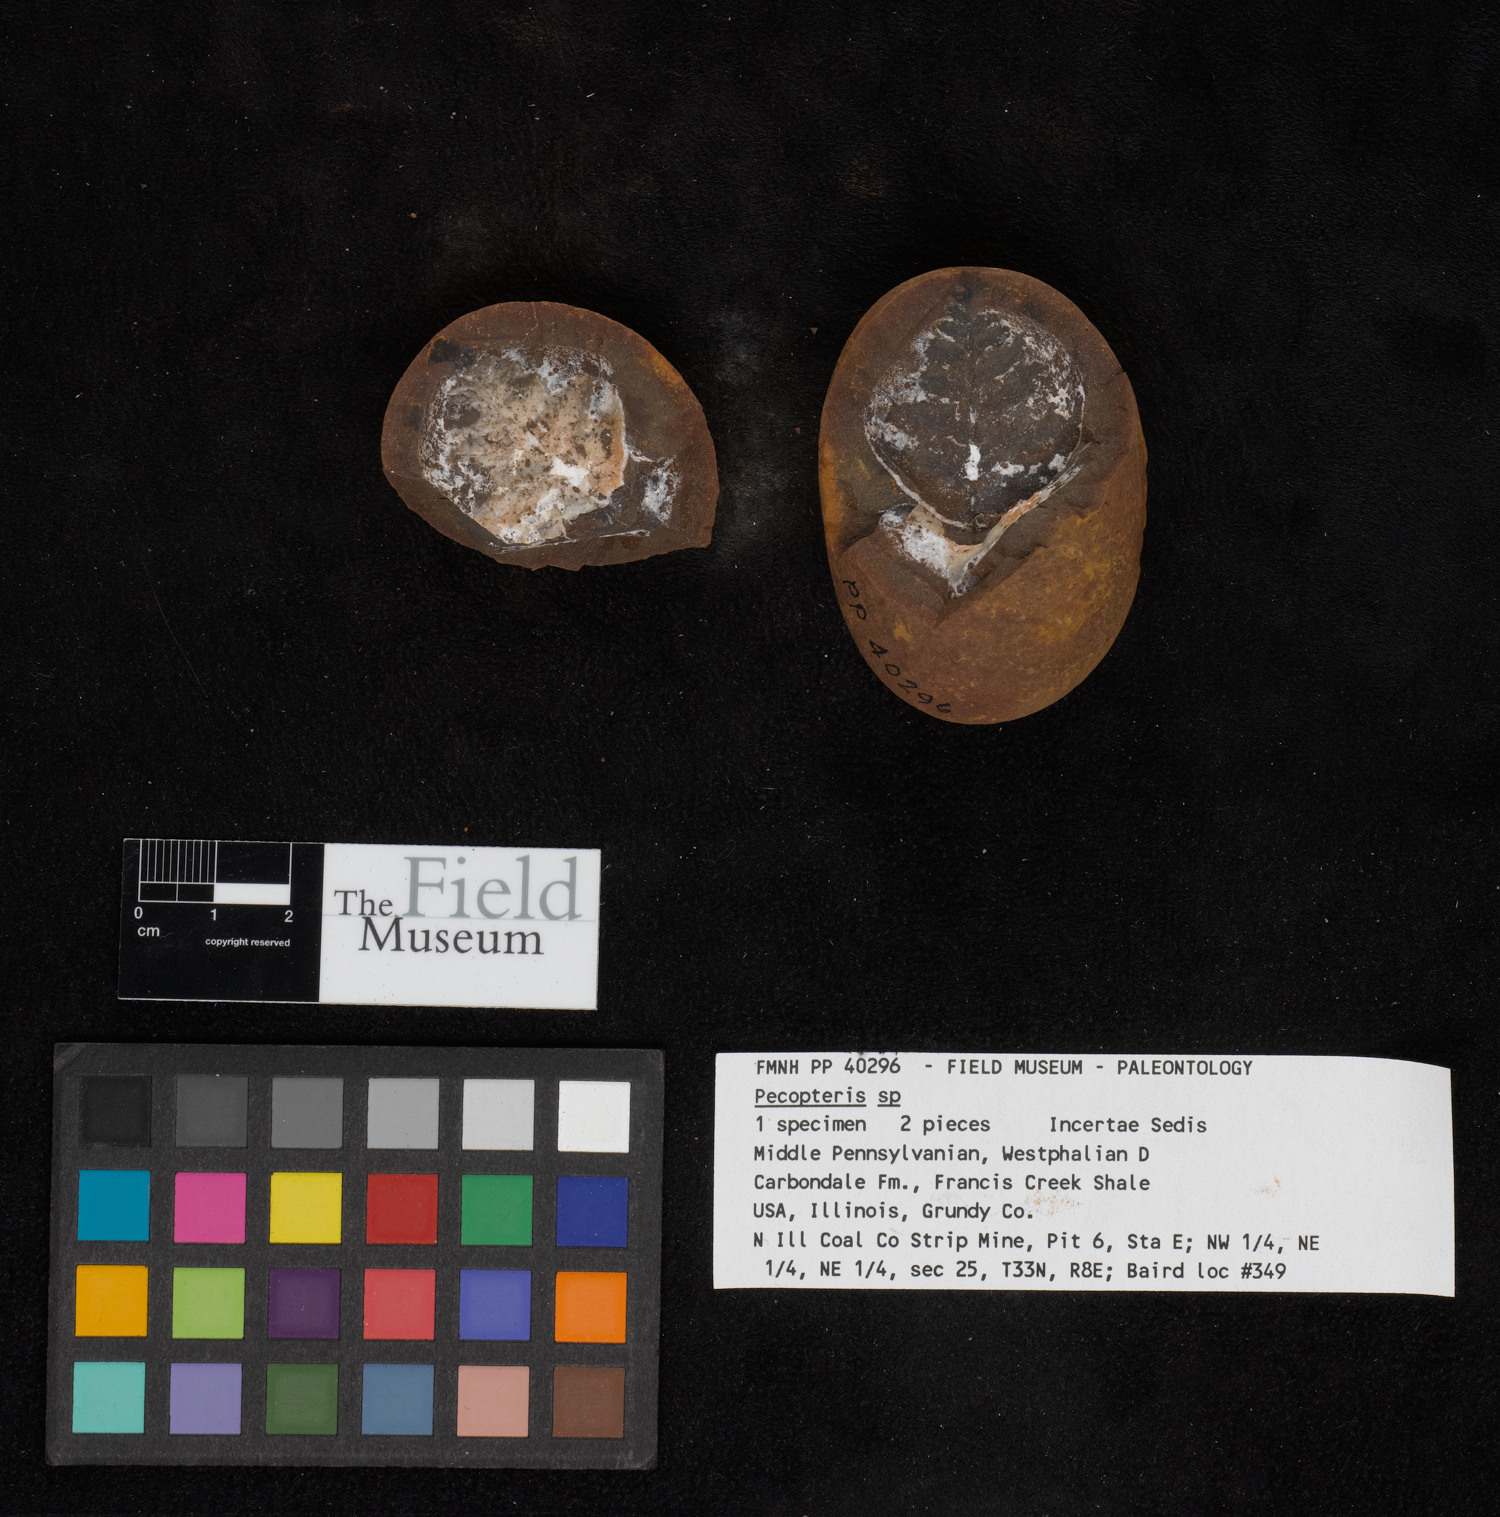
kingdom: Plantae
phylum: Tracheophyta
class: Polypodiopsida
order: Marattiales
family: Asterothecaceae
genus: Pecopteris
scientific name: Pecopteris
